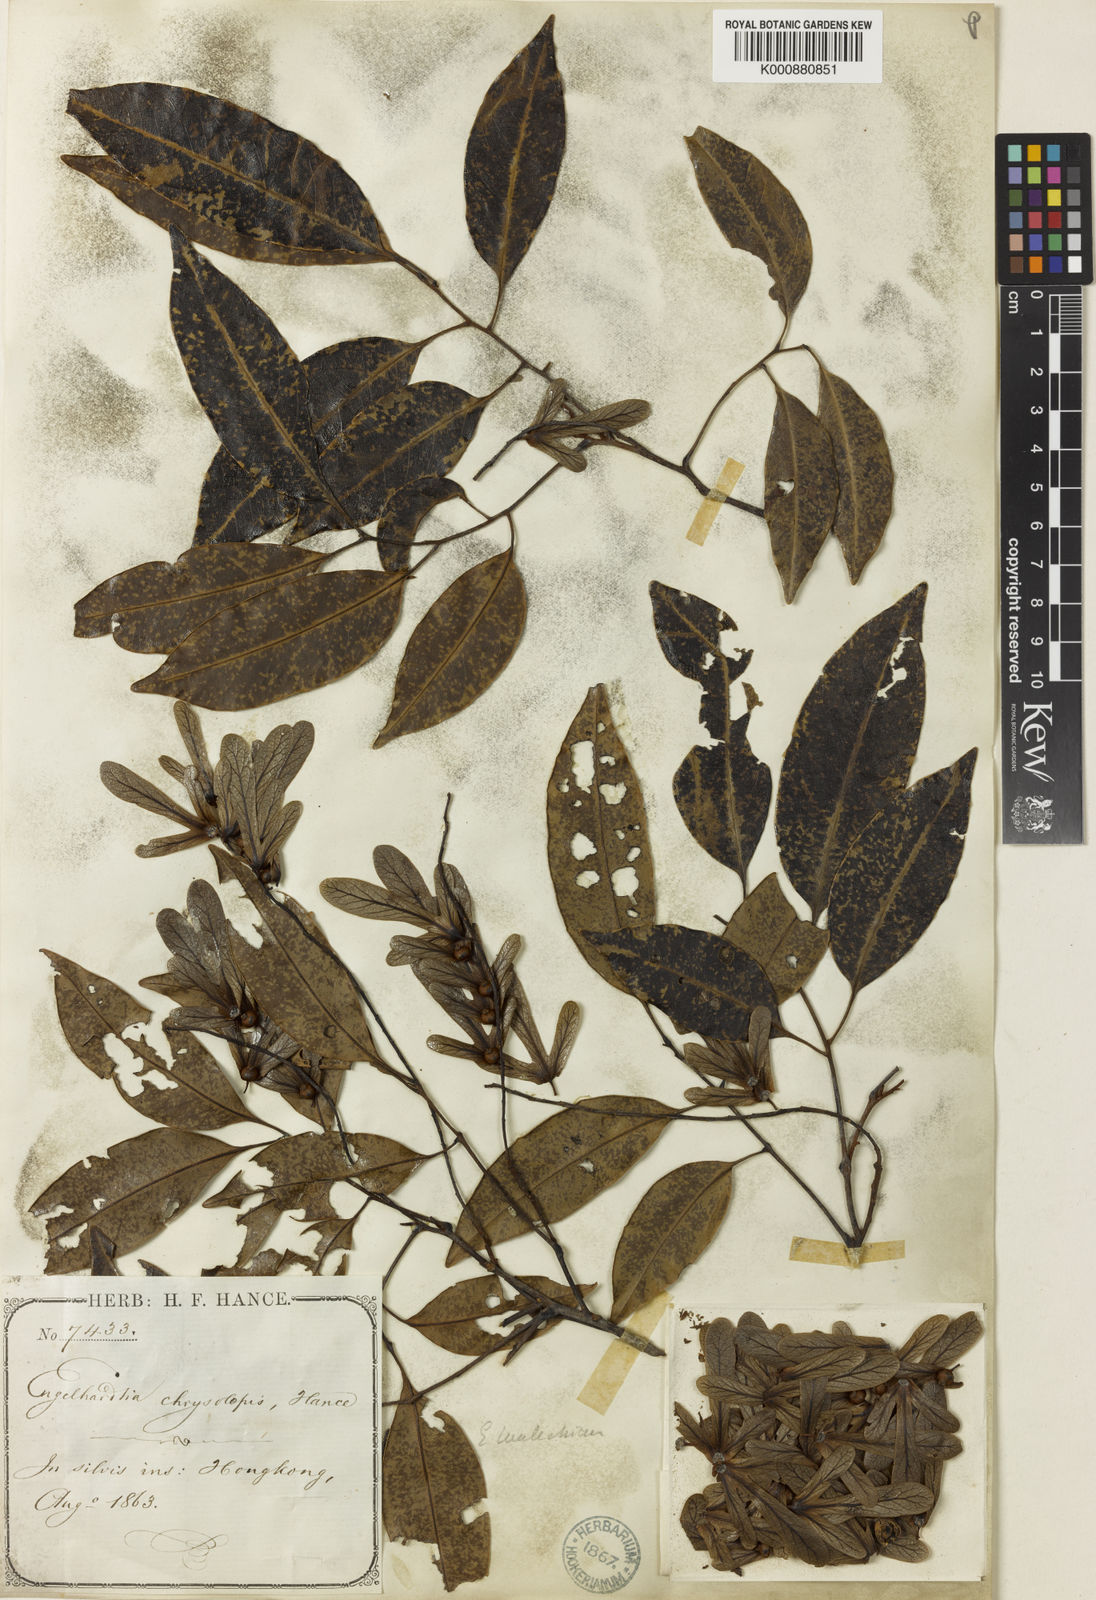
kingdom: Plantae
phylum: Tracheophyta
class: Magnoliopsida
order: Fagales
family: Juglandaceae
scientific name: Juglandaceae
